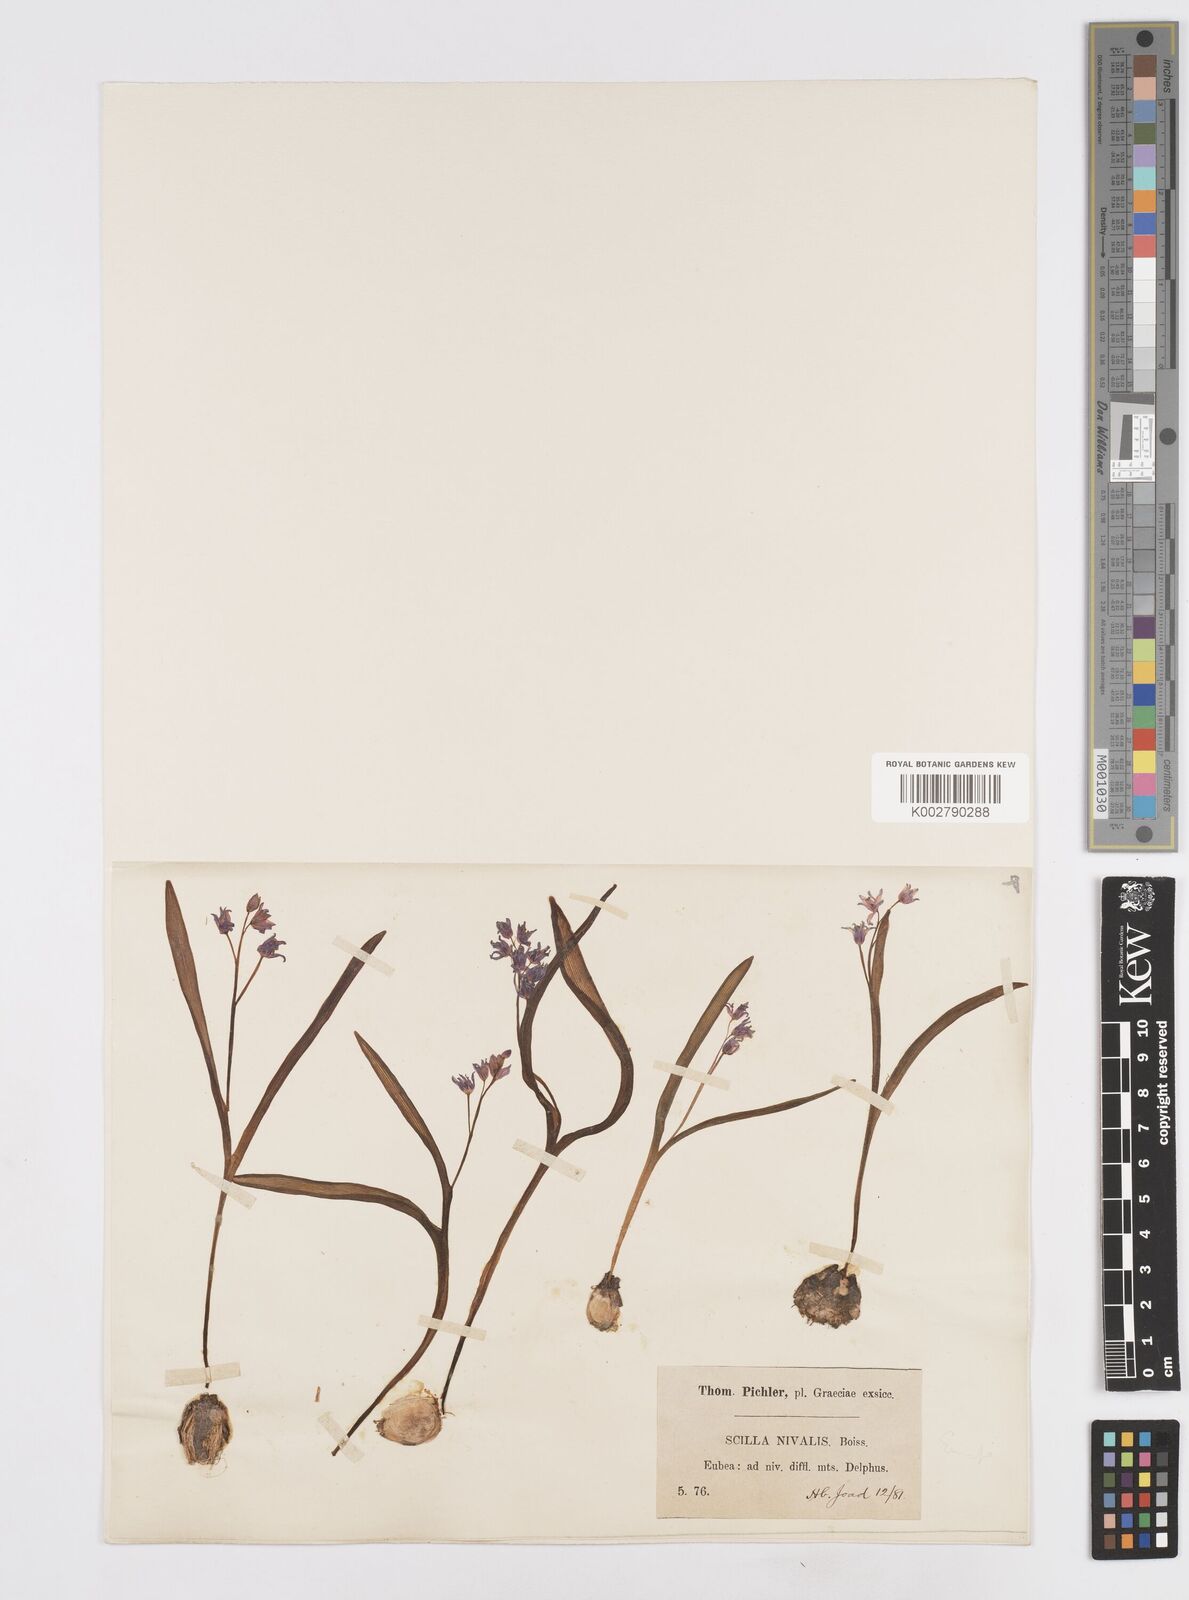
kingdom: Plantae
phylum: Tracheophyta
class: Liliopsida
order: Asparagales
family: Asparagaceae
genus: Scilla
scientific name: Scilla nivalis
